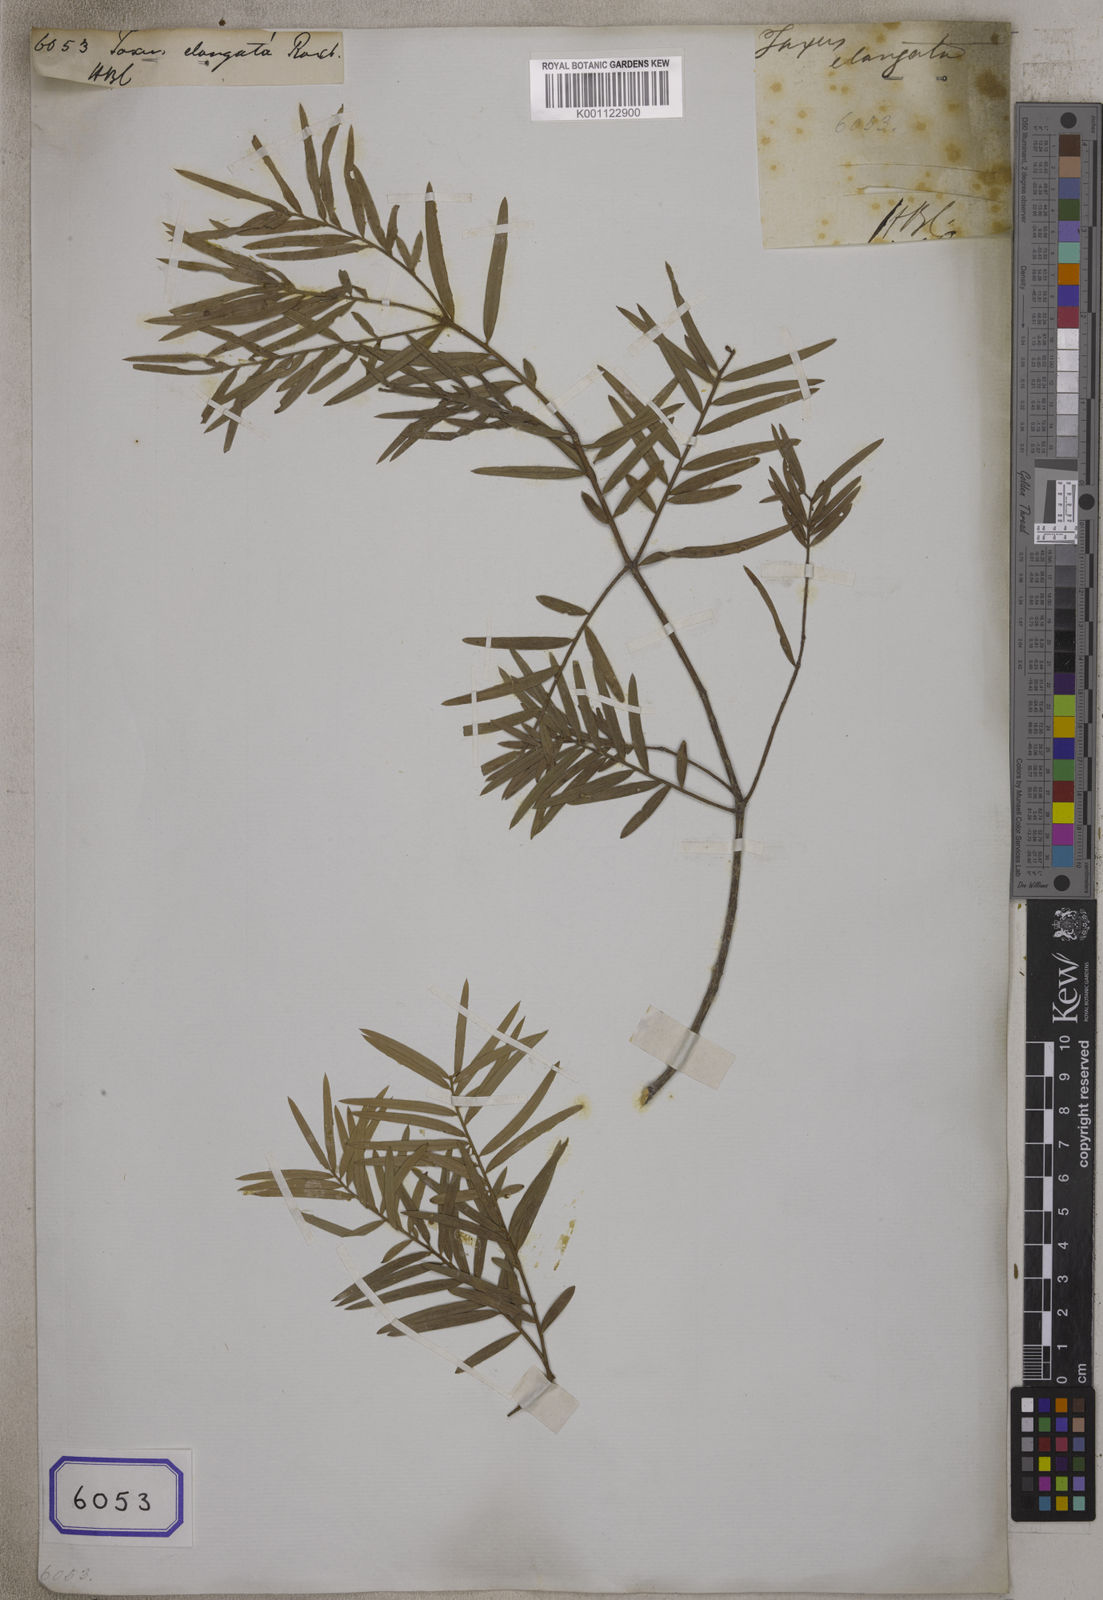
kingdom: Plantae
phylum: Tracheophyta
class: Pinopsida
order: Pinales
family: Taxaceae
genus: Taxus
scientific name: Taxus
